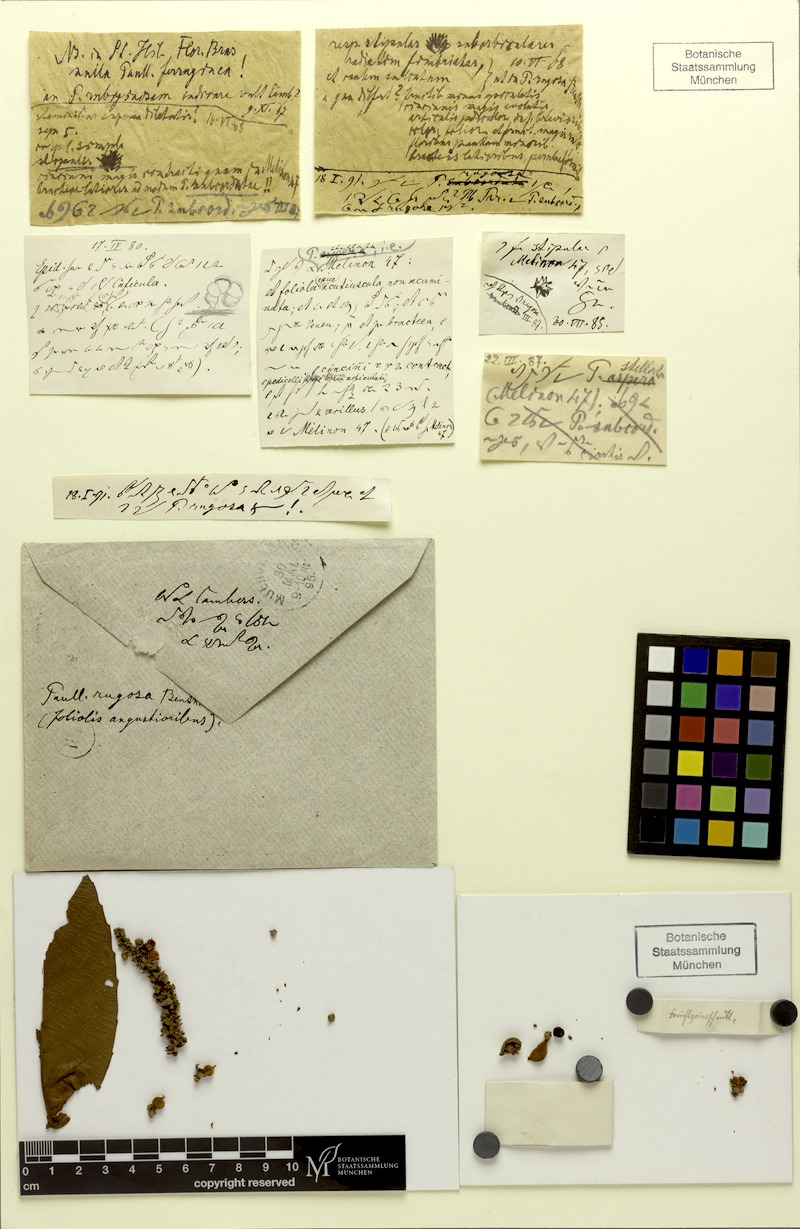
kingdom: Plantae
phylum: Tracheophyta
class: Magnoliopsida
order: Sapindales
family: Sapindaceae
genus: Paullinia
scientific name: Paullinia rugosa
